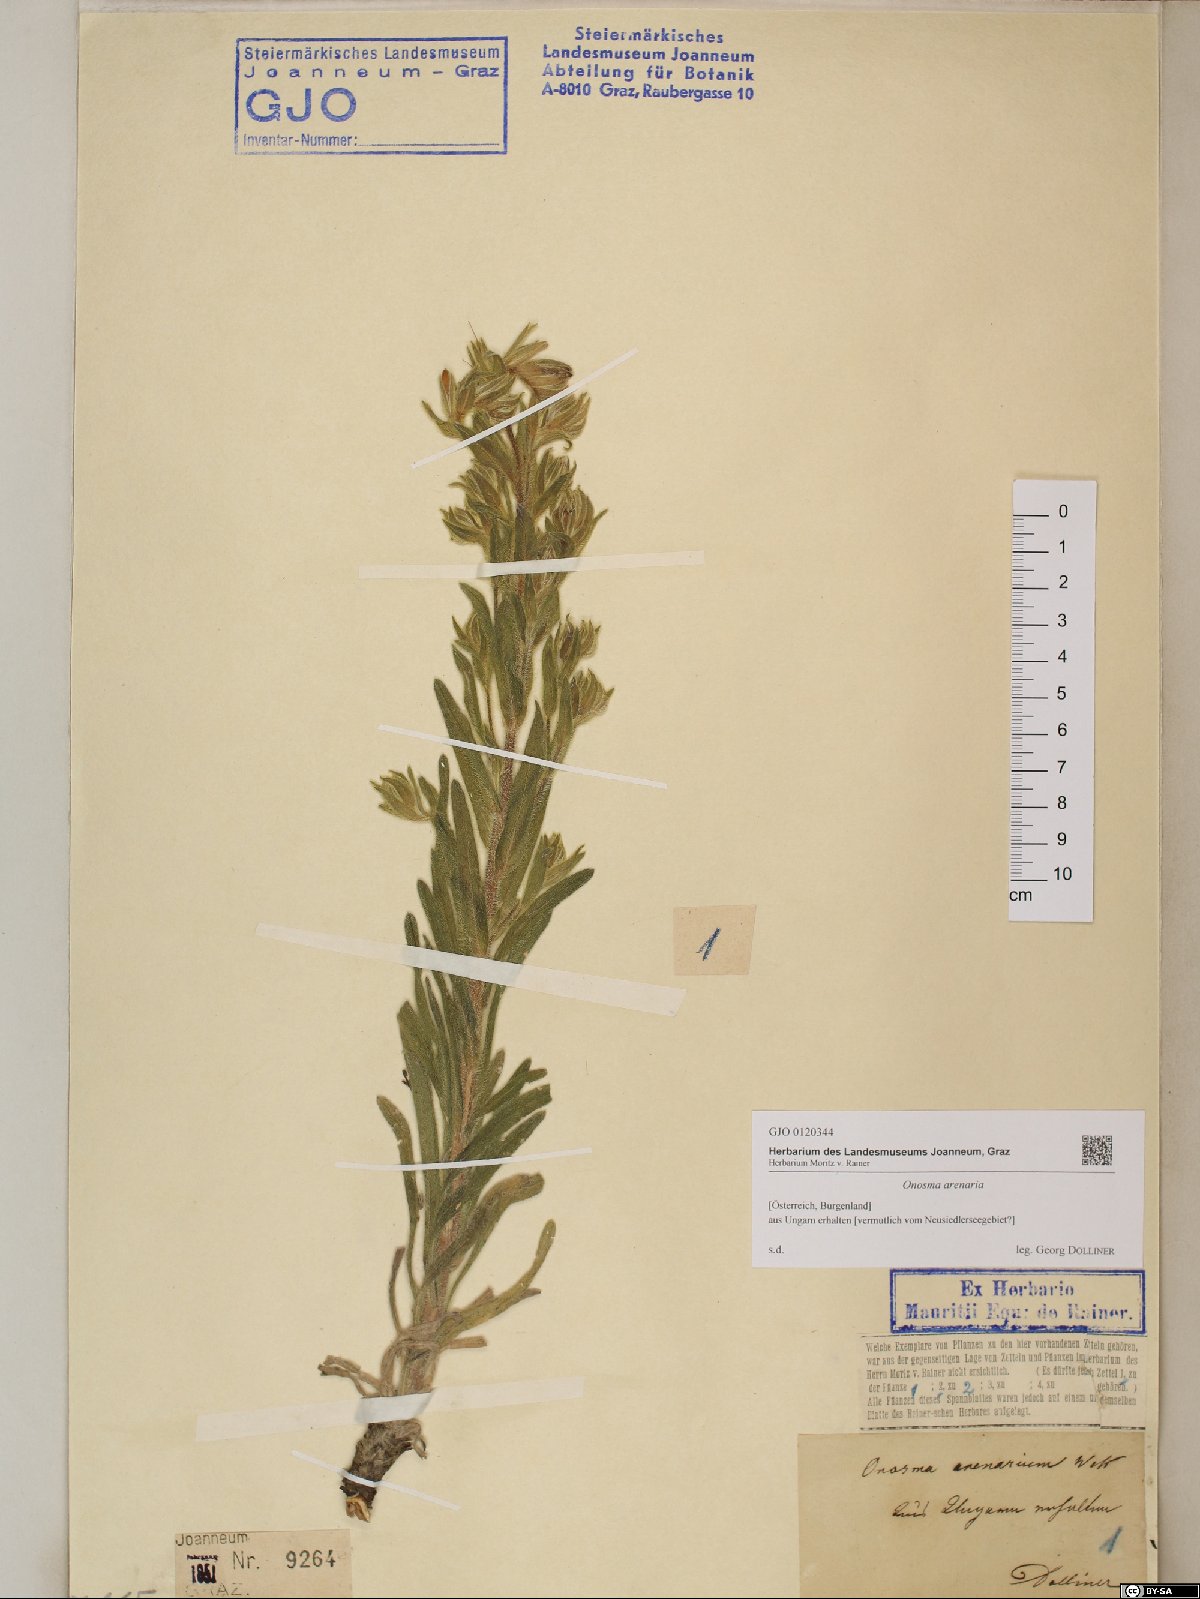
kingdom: Plantae
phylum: Tracheophyta
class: Magnoliopsida
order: Boraginales
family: Boraginaceae
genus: Onosma
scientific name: Onosma arenaria
